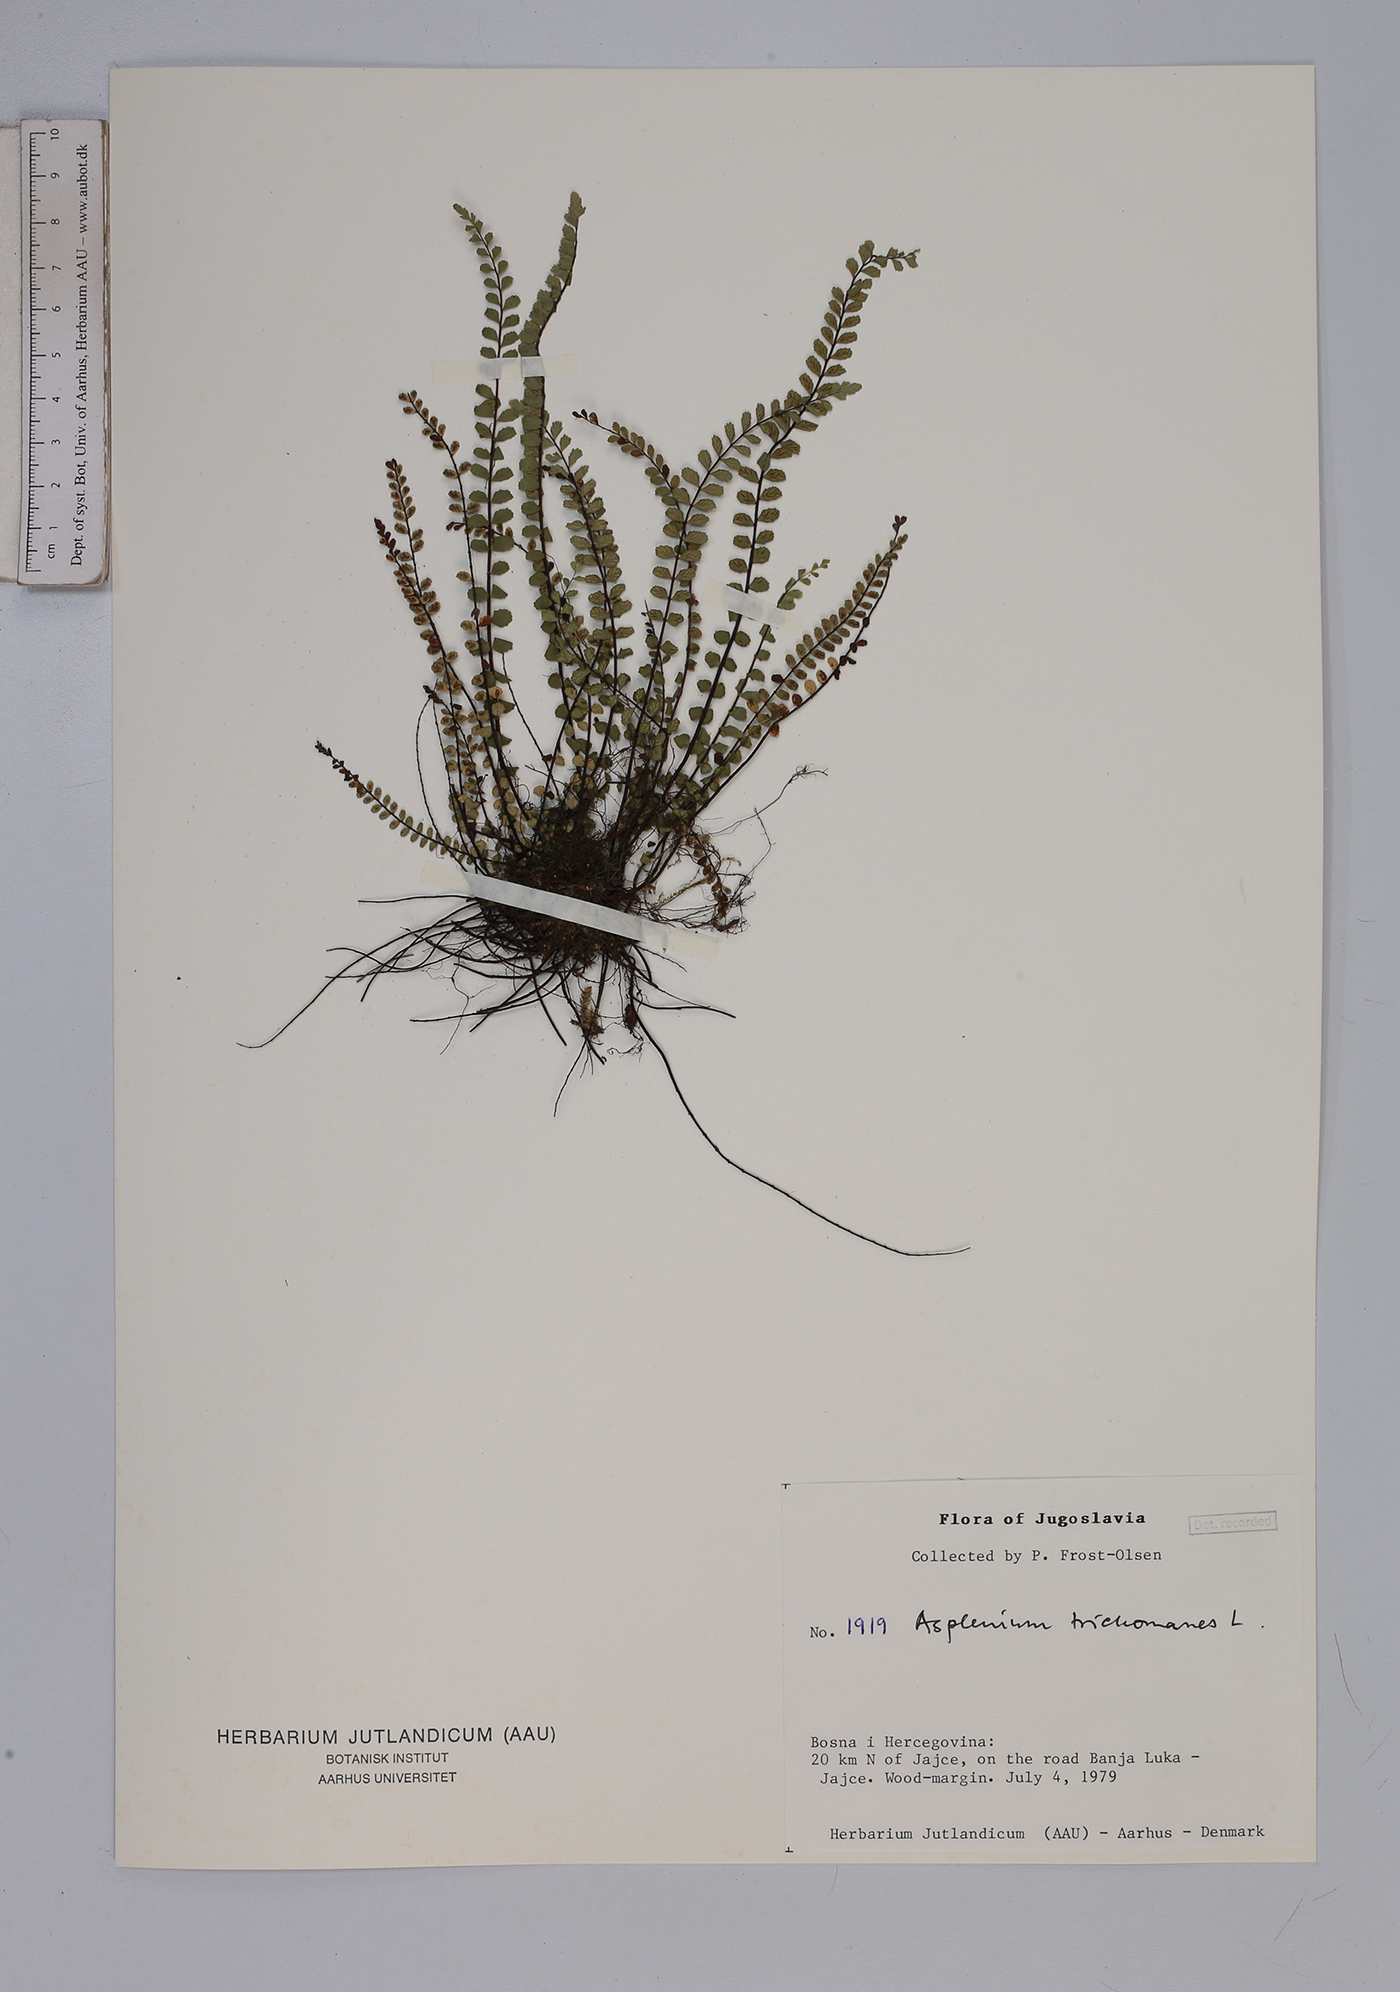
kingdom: Plantae
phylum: Tracheophyta
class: Polypodiopsida
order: Polypodiales
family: Aspleniaceae
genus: Asplenium
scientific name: Asplenium trichomanes
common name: Maidenhair spleenwort
